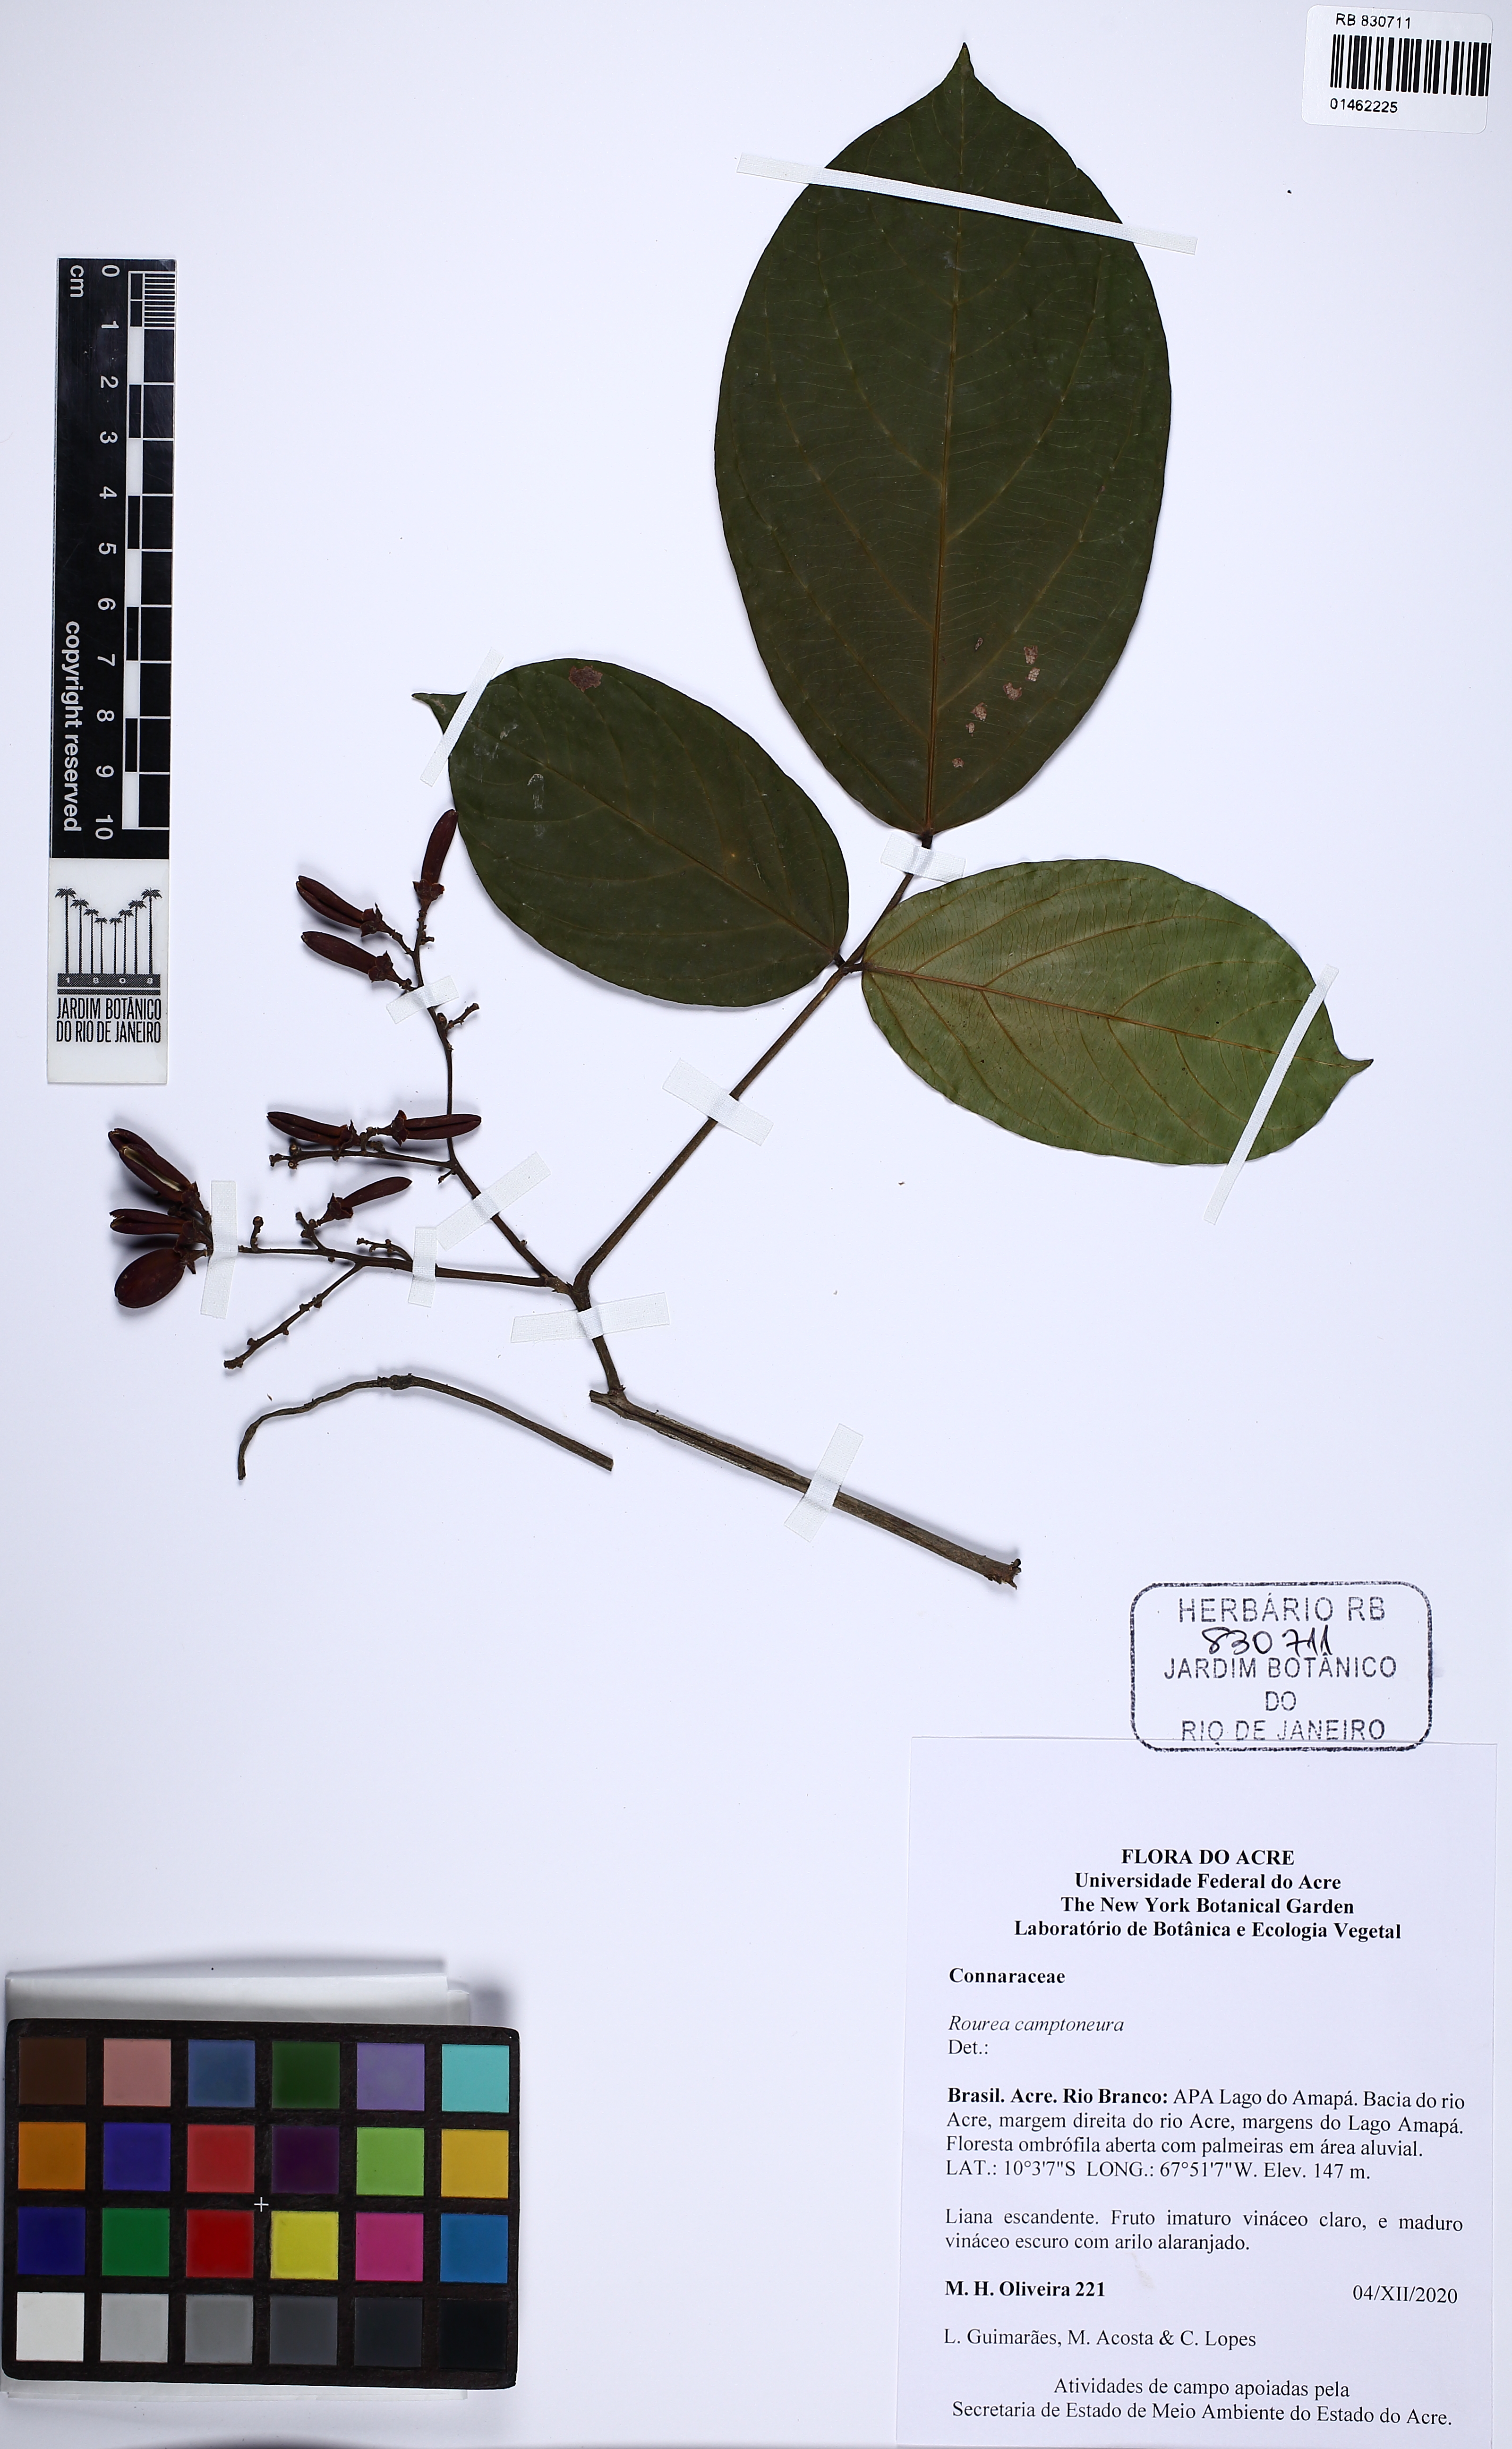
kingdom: Plantae
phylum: Tracheophyta
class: Magnoliopsida
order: Oxalidales
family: Connaraceae
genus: Rourea
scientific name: Rourea camptoneura
